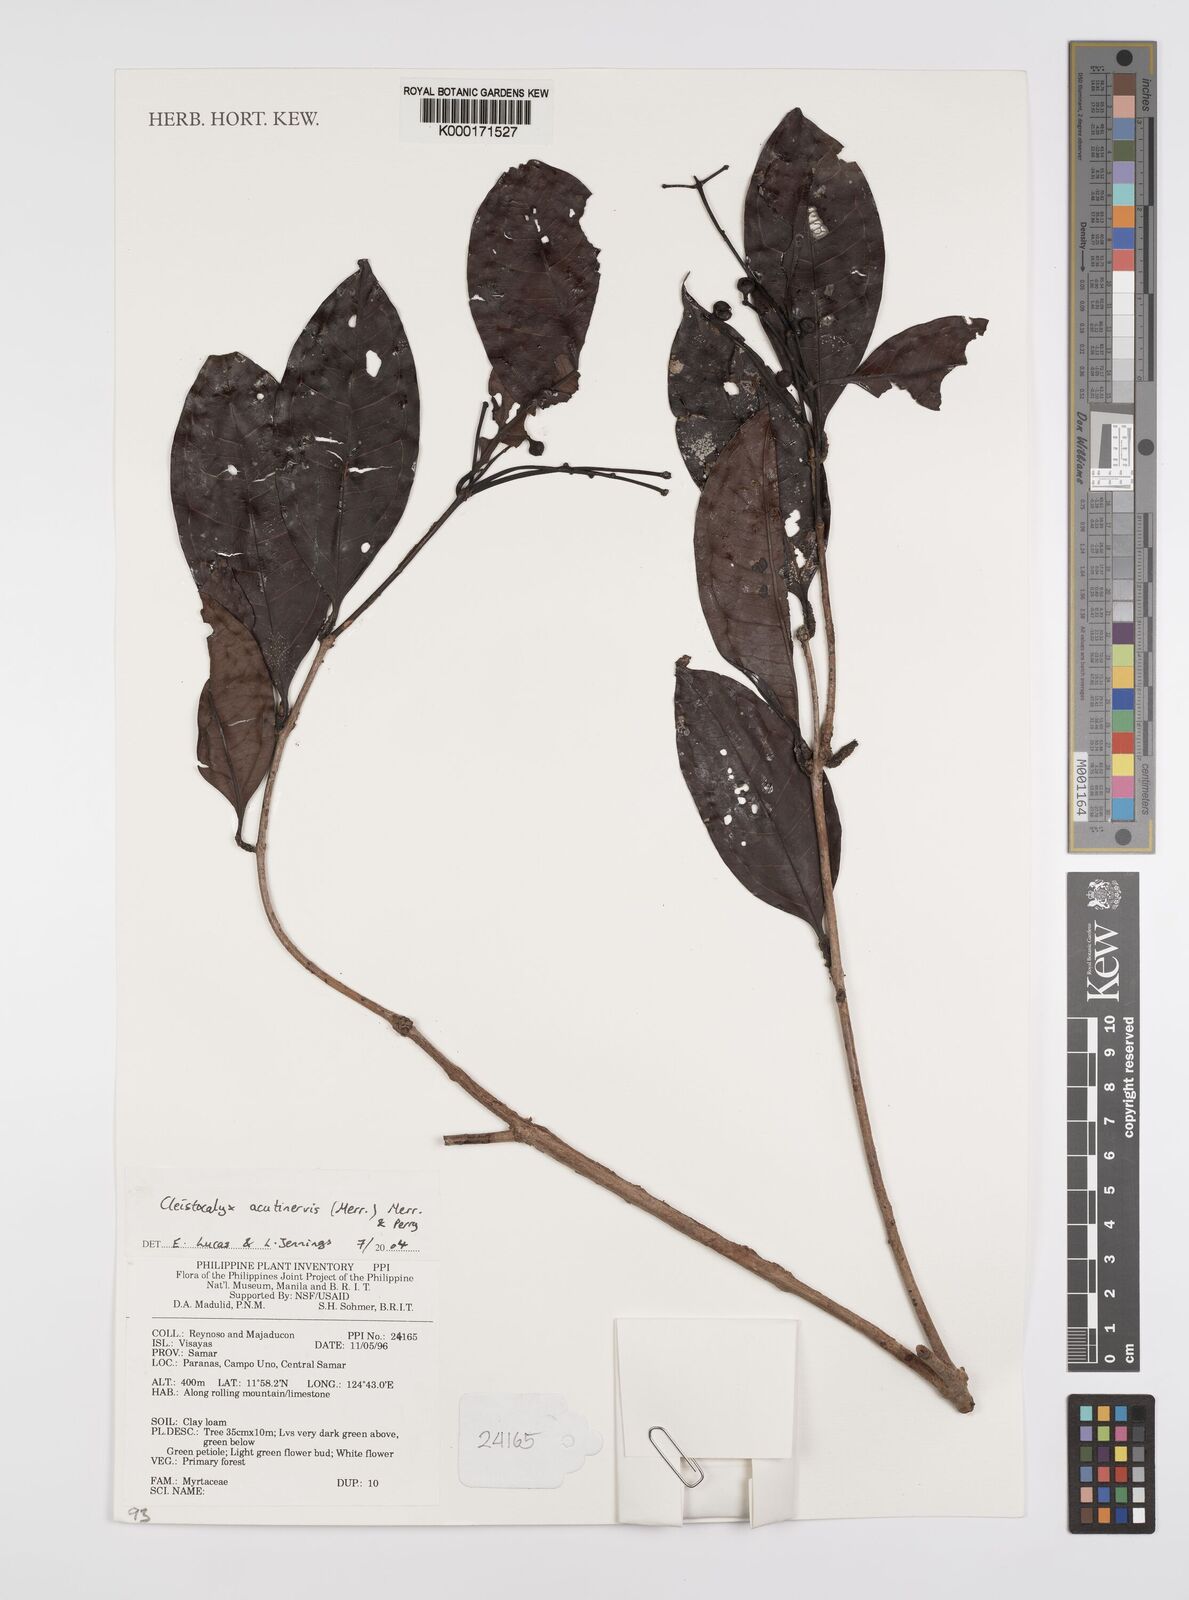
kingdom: Plantae
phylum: Tracheophyta
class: Magnoliopsida
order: Myrtales
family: Myrtaceae
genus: Syzygium
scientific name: Syzygium
